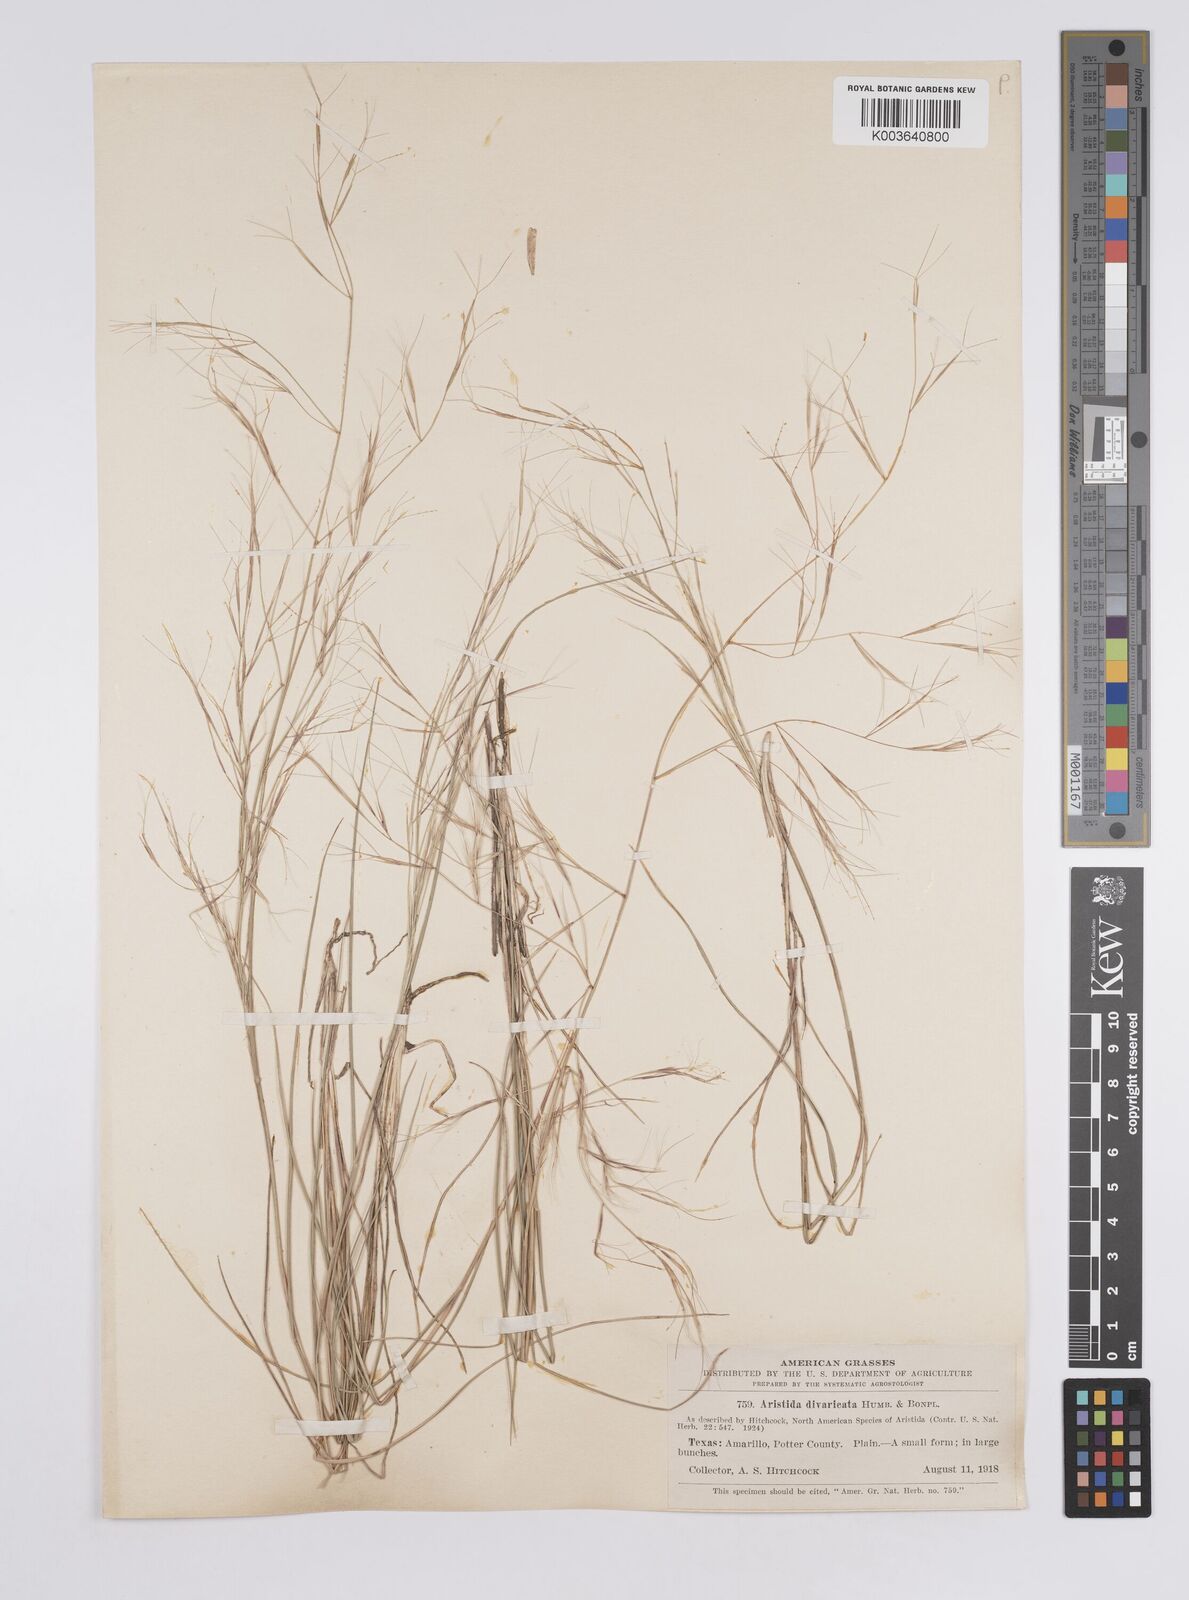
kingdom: Plantae
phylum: Tracheophyta
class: Liliopsida
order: Poales
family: Poaceae
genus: Aristida
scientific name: Aristida laxa
